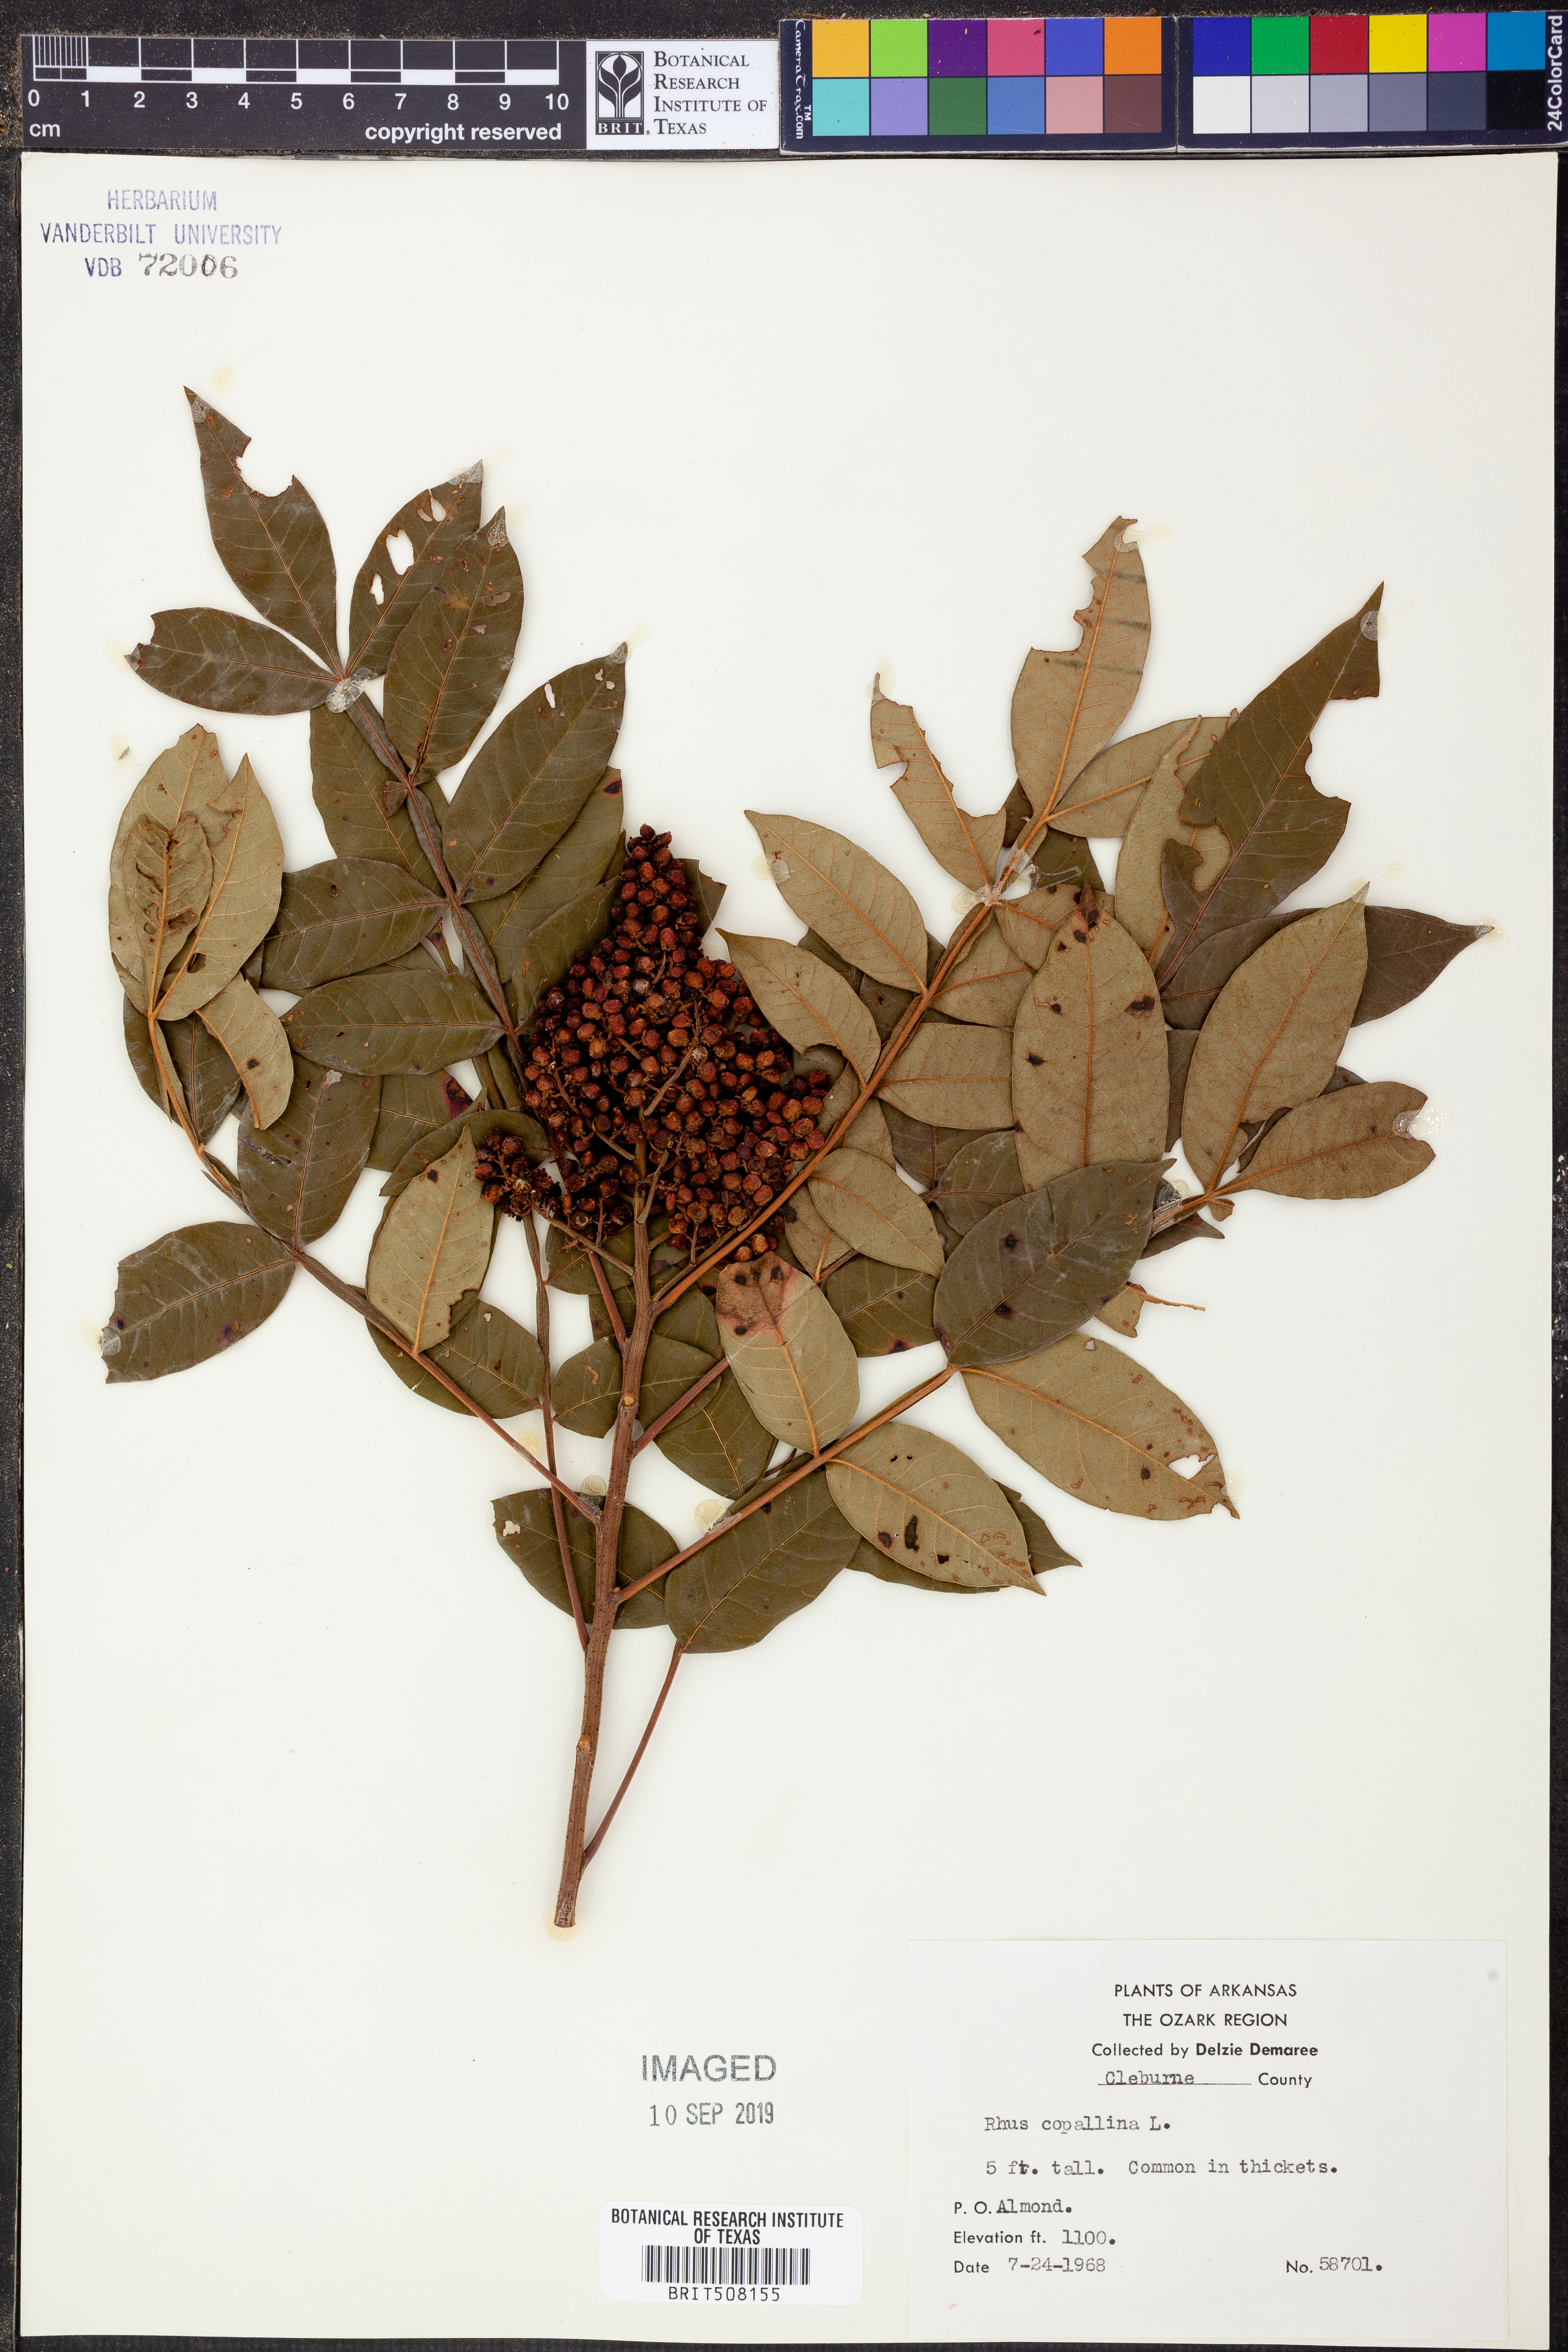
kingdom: Plantae
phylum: Tracheophyta
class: Magnoliopsida
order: Sapindales
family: Anacardiaceae
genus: Rhus
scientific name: Rhus copallina
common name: Shining sumac
